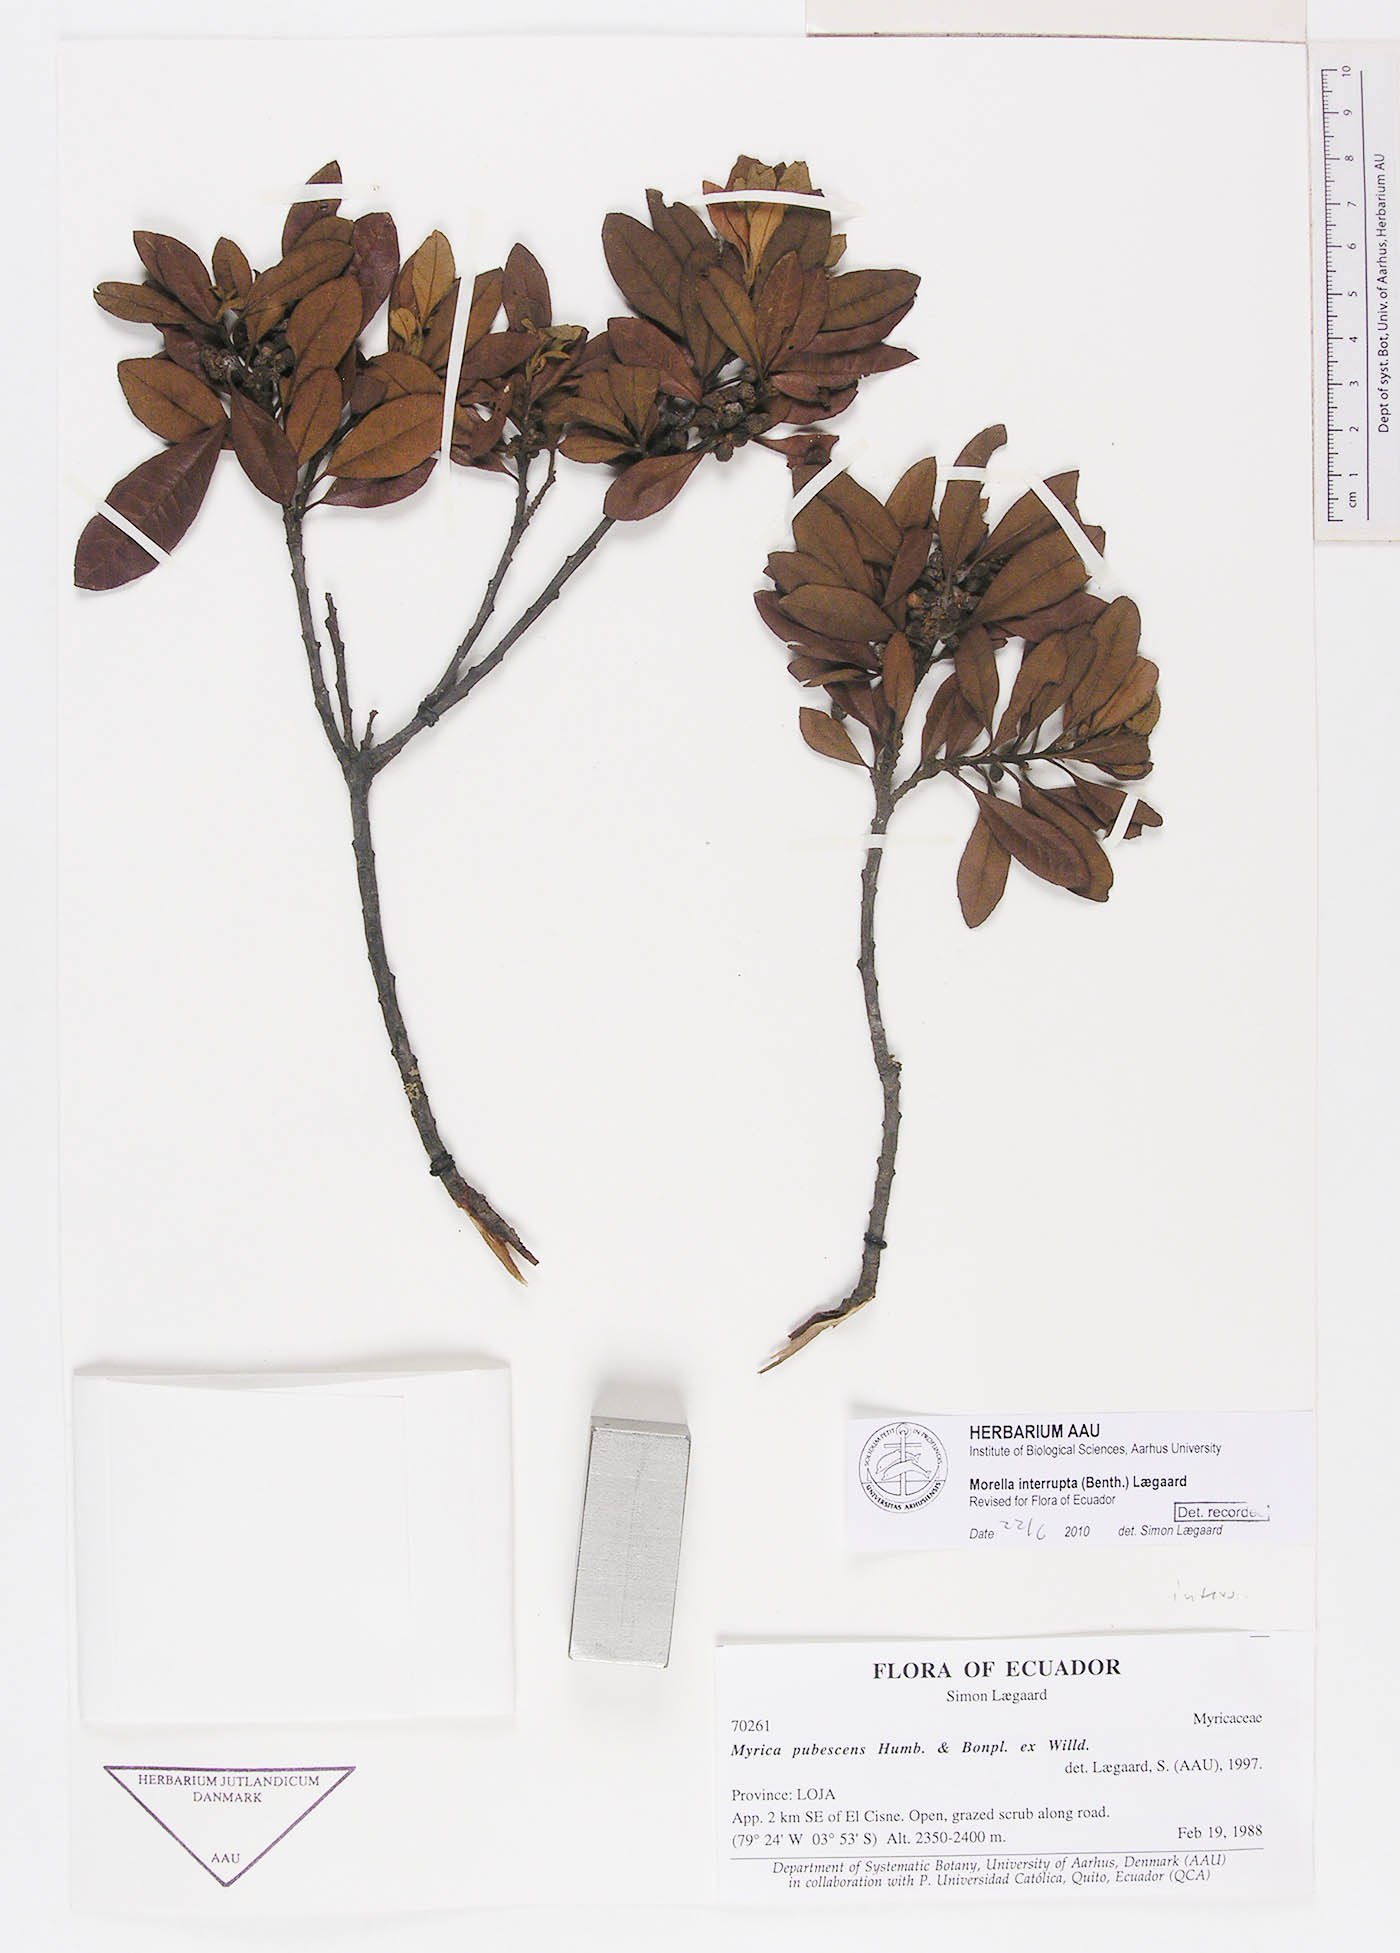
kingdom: Plantae
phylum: Tracheophyta
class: Magnoliopsida
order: Fagales
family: Myricaceae
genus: Morella
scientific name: Morella interrupta
